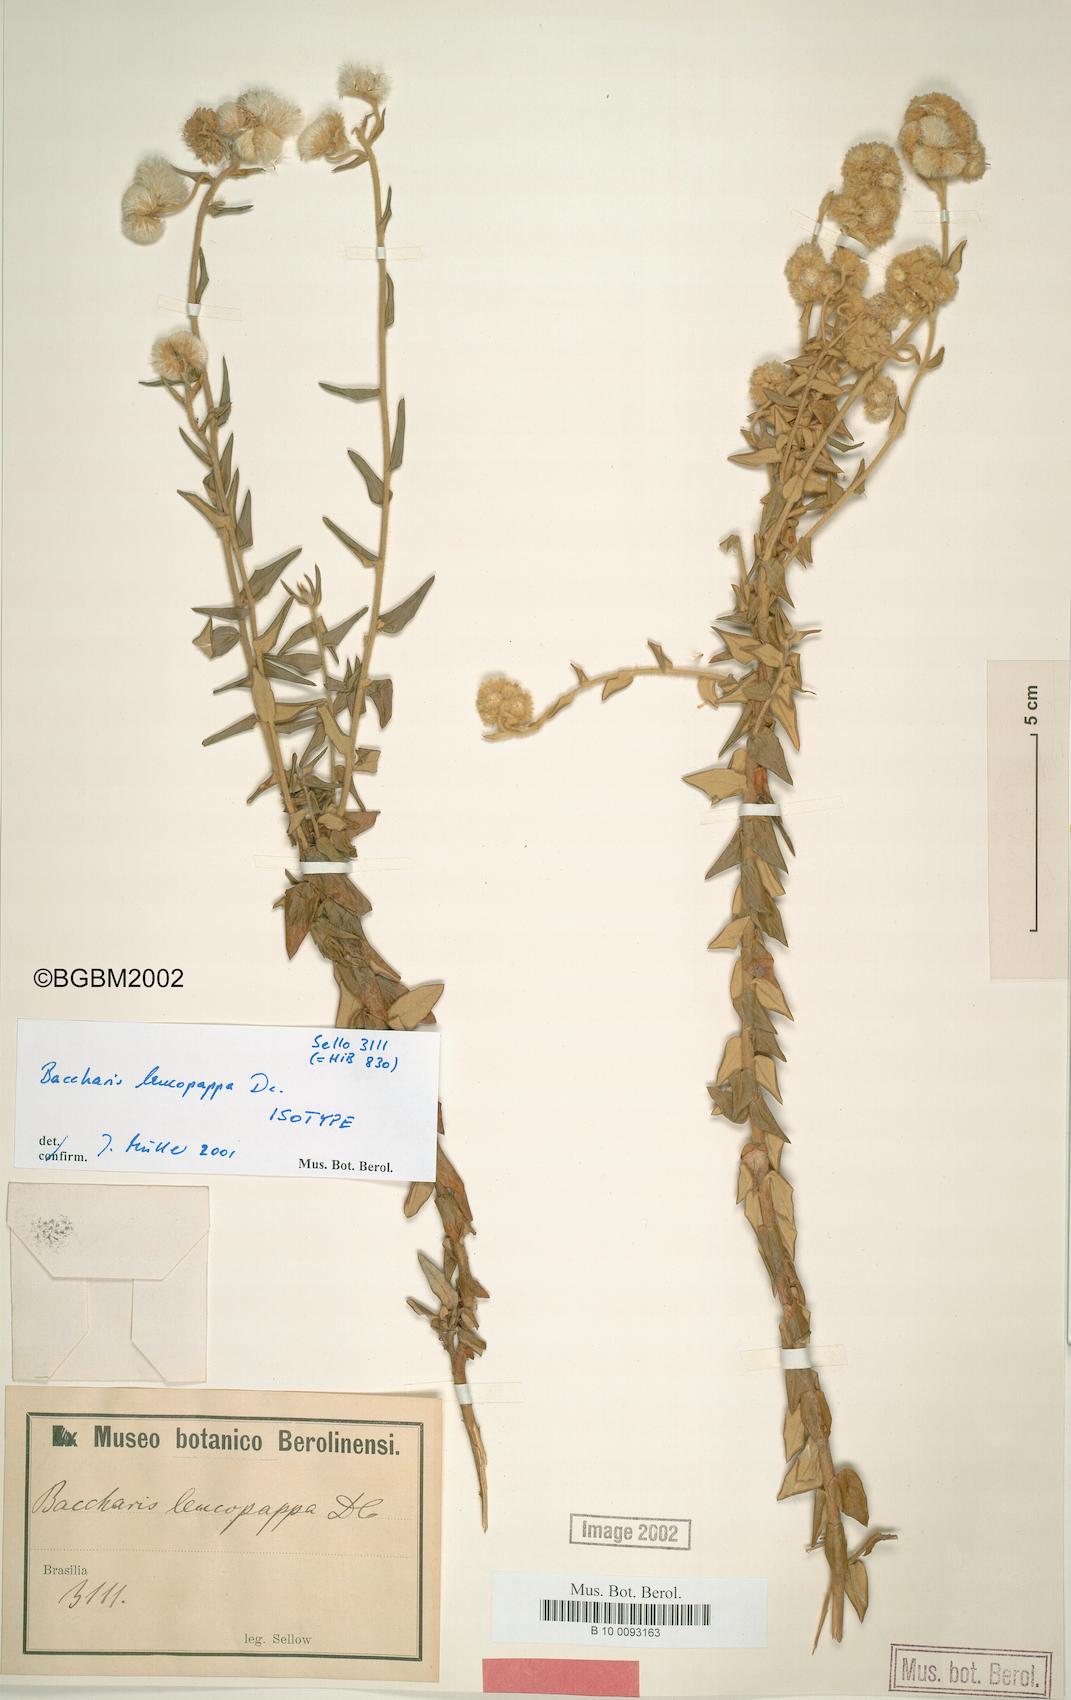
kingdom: Plantae
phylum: Tracheophyta
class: Magnoliopsida
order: Asterales
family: Asteraceae
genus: Baccharis
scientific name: Baccharis leucopappa
